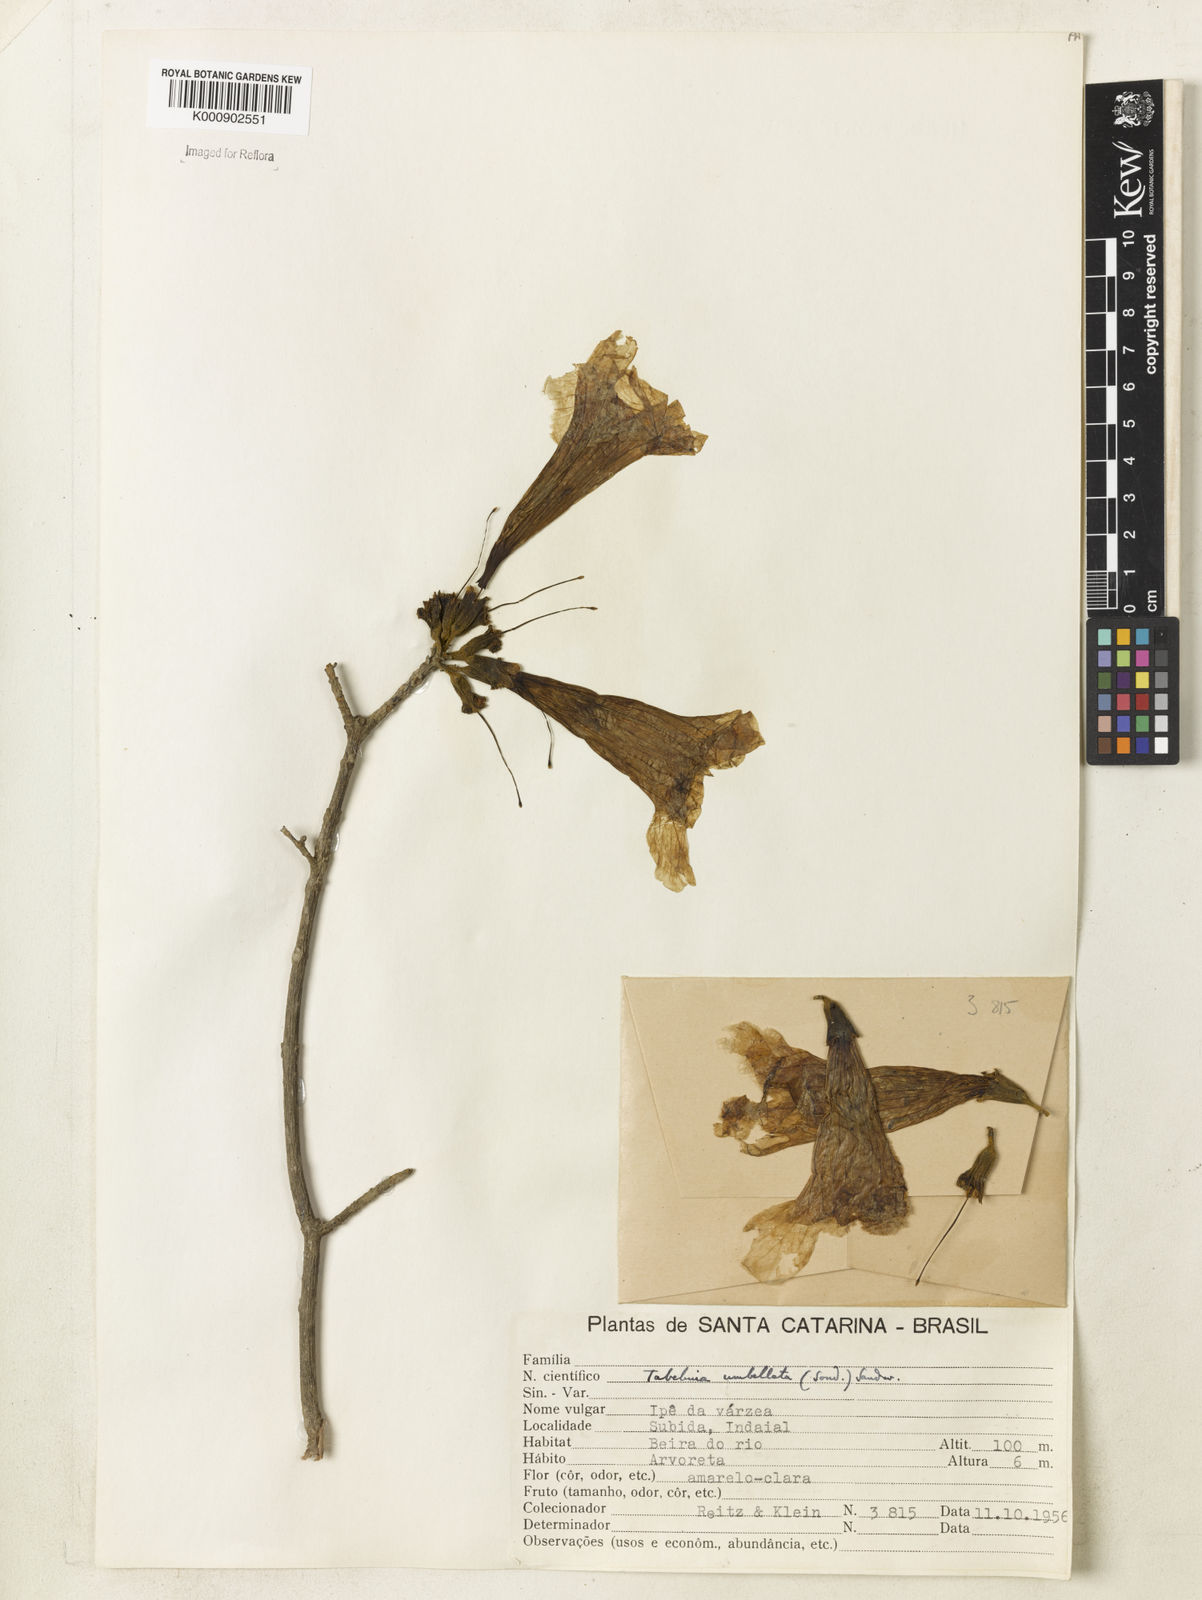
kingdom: Plantae
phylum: Tracheophyta
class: Magnoliopsida
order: Lamiales
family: Bignoniaceae
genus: Handroanthus
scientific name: Handroanthus umbellatus
